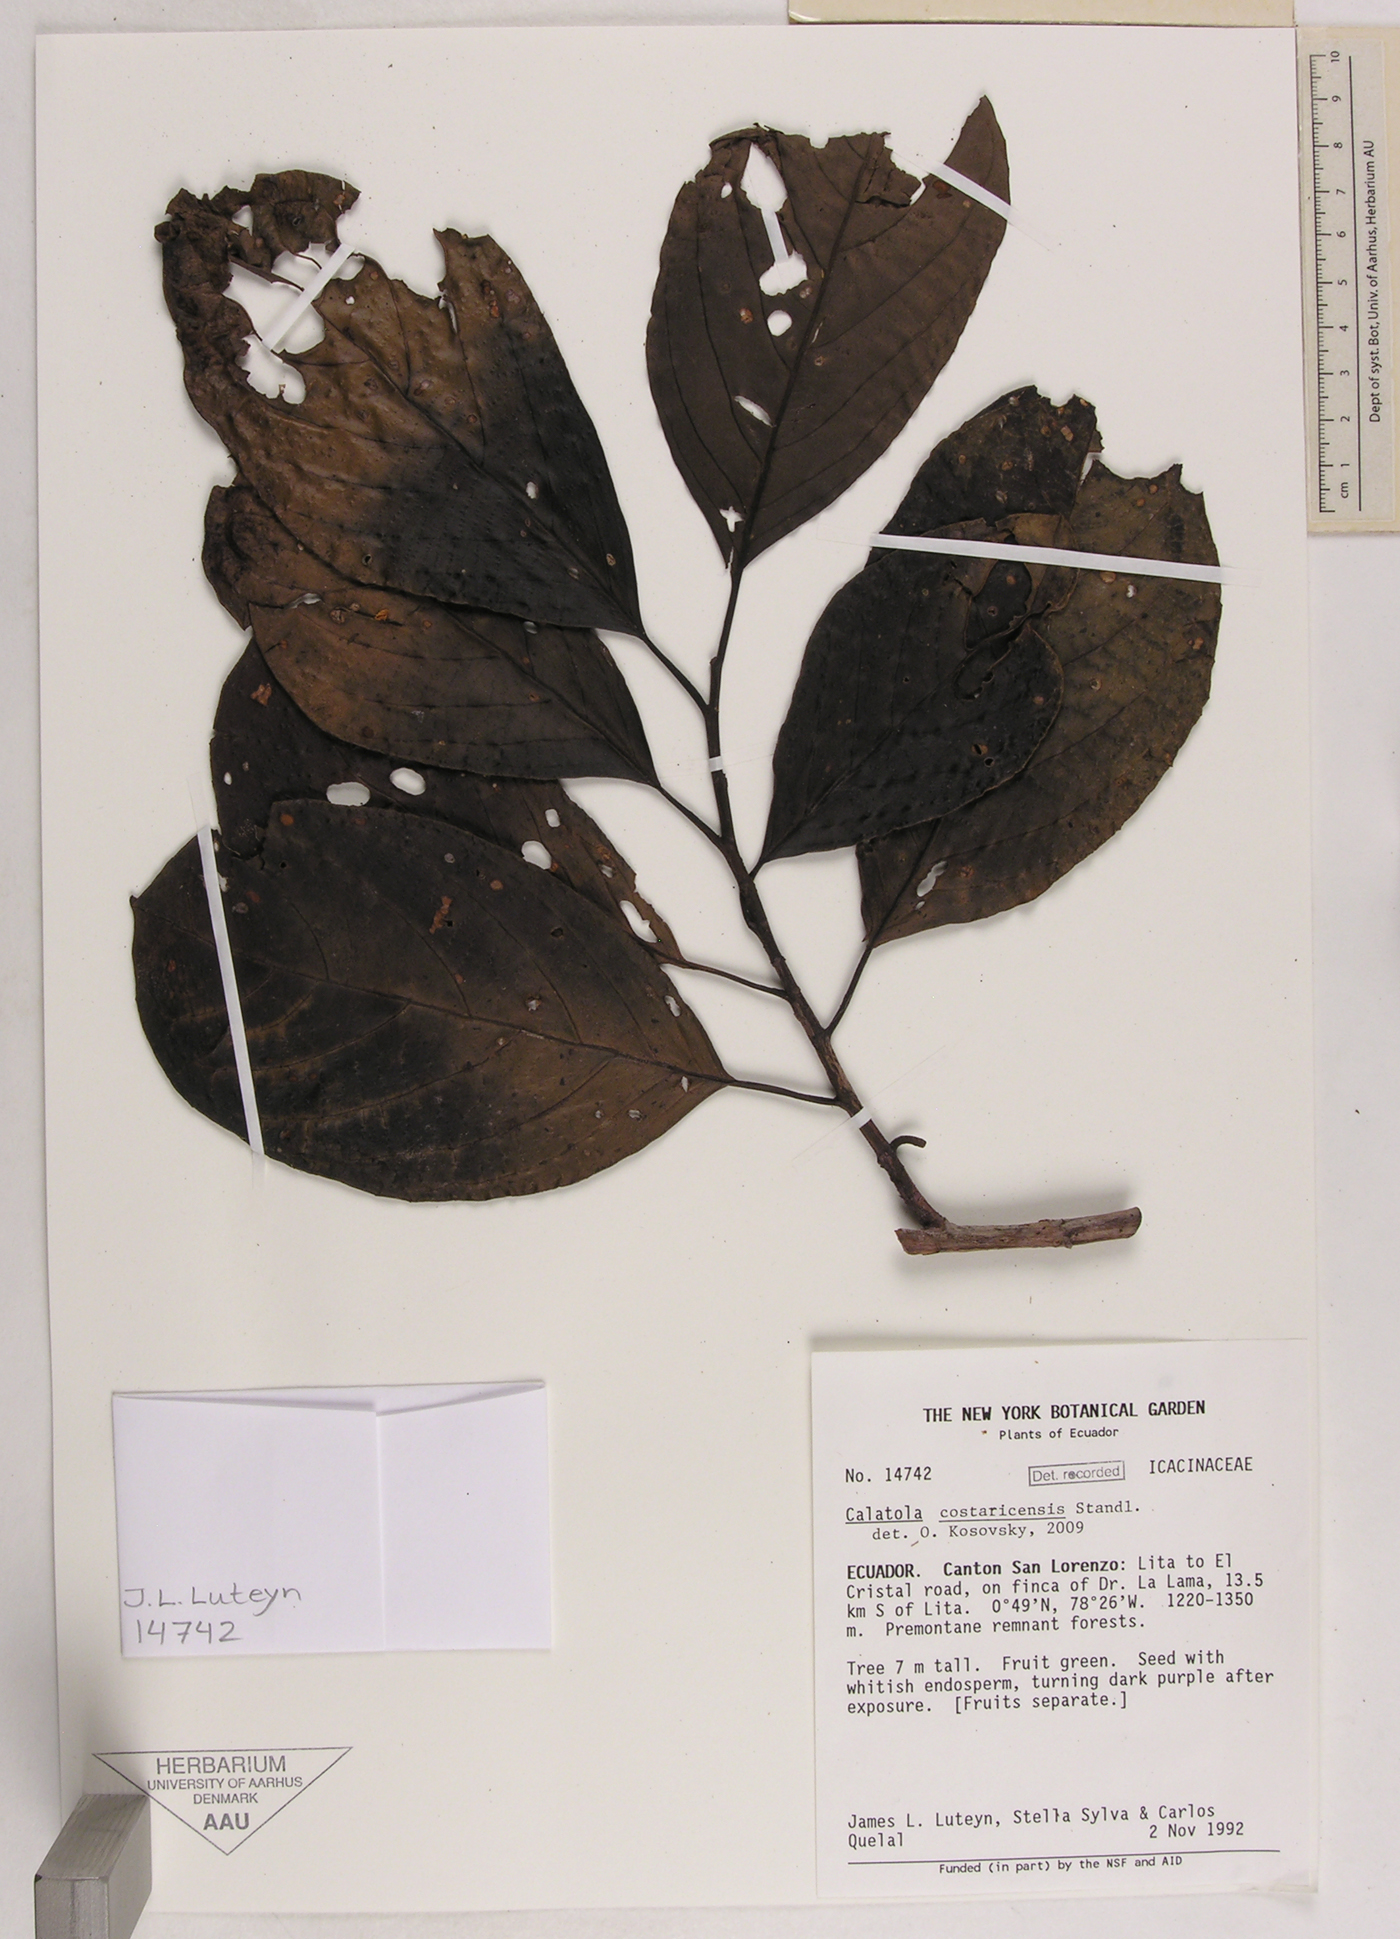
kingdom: Plantae
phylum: Tracheophyta
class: Magnoliopsida
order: Metteniusales
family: Metteniusaceae
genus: Calatola
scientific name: Calatola costaricensis
